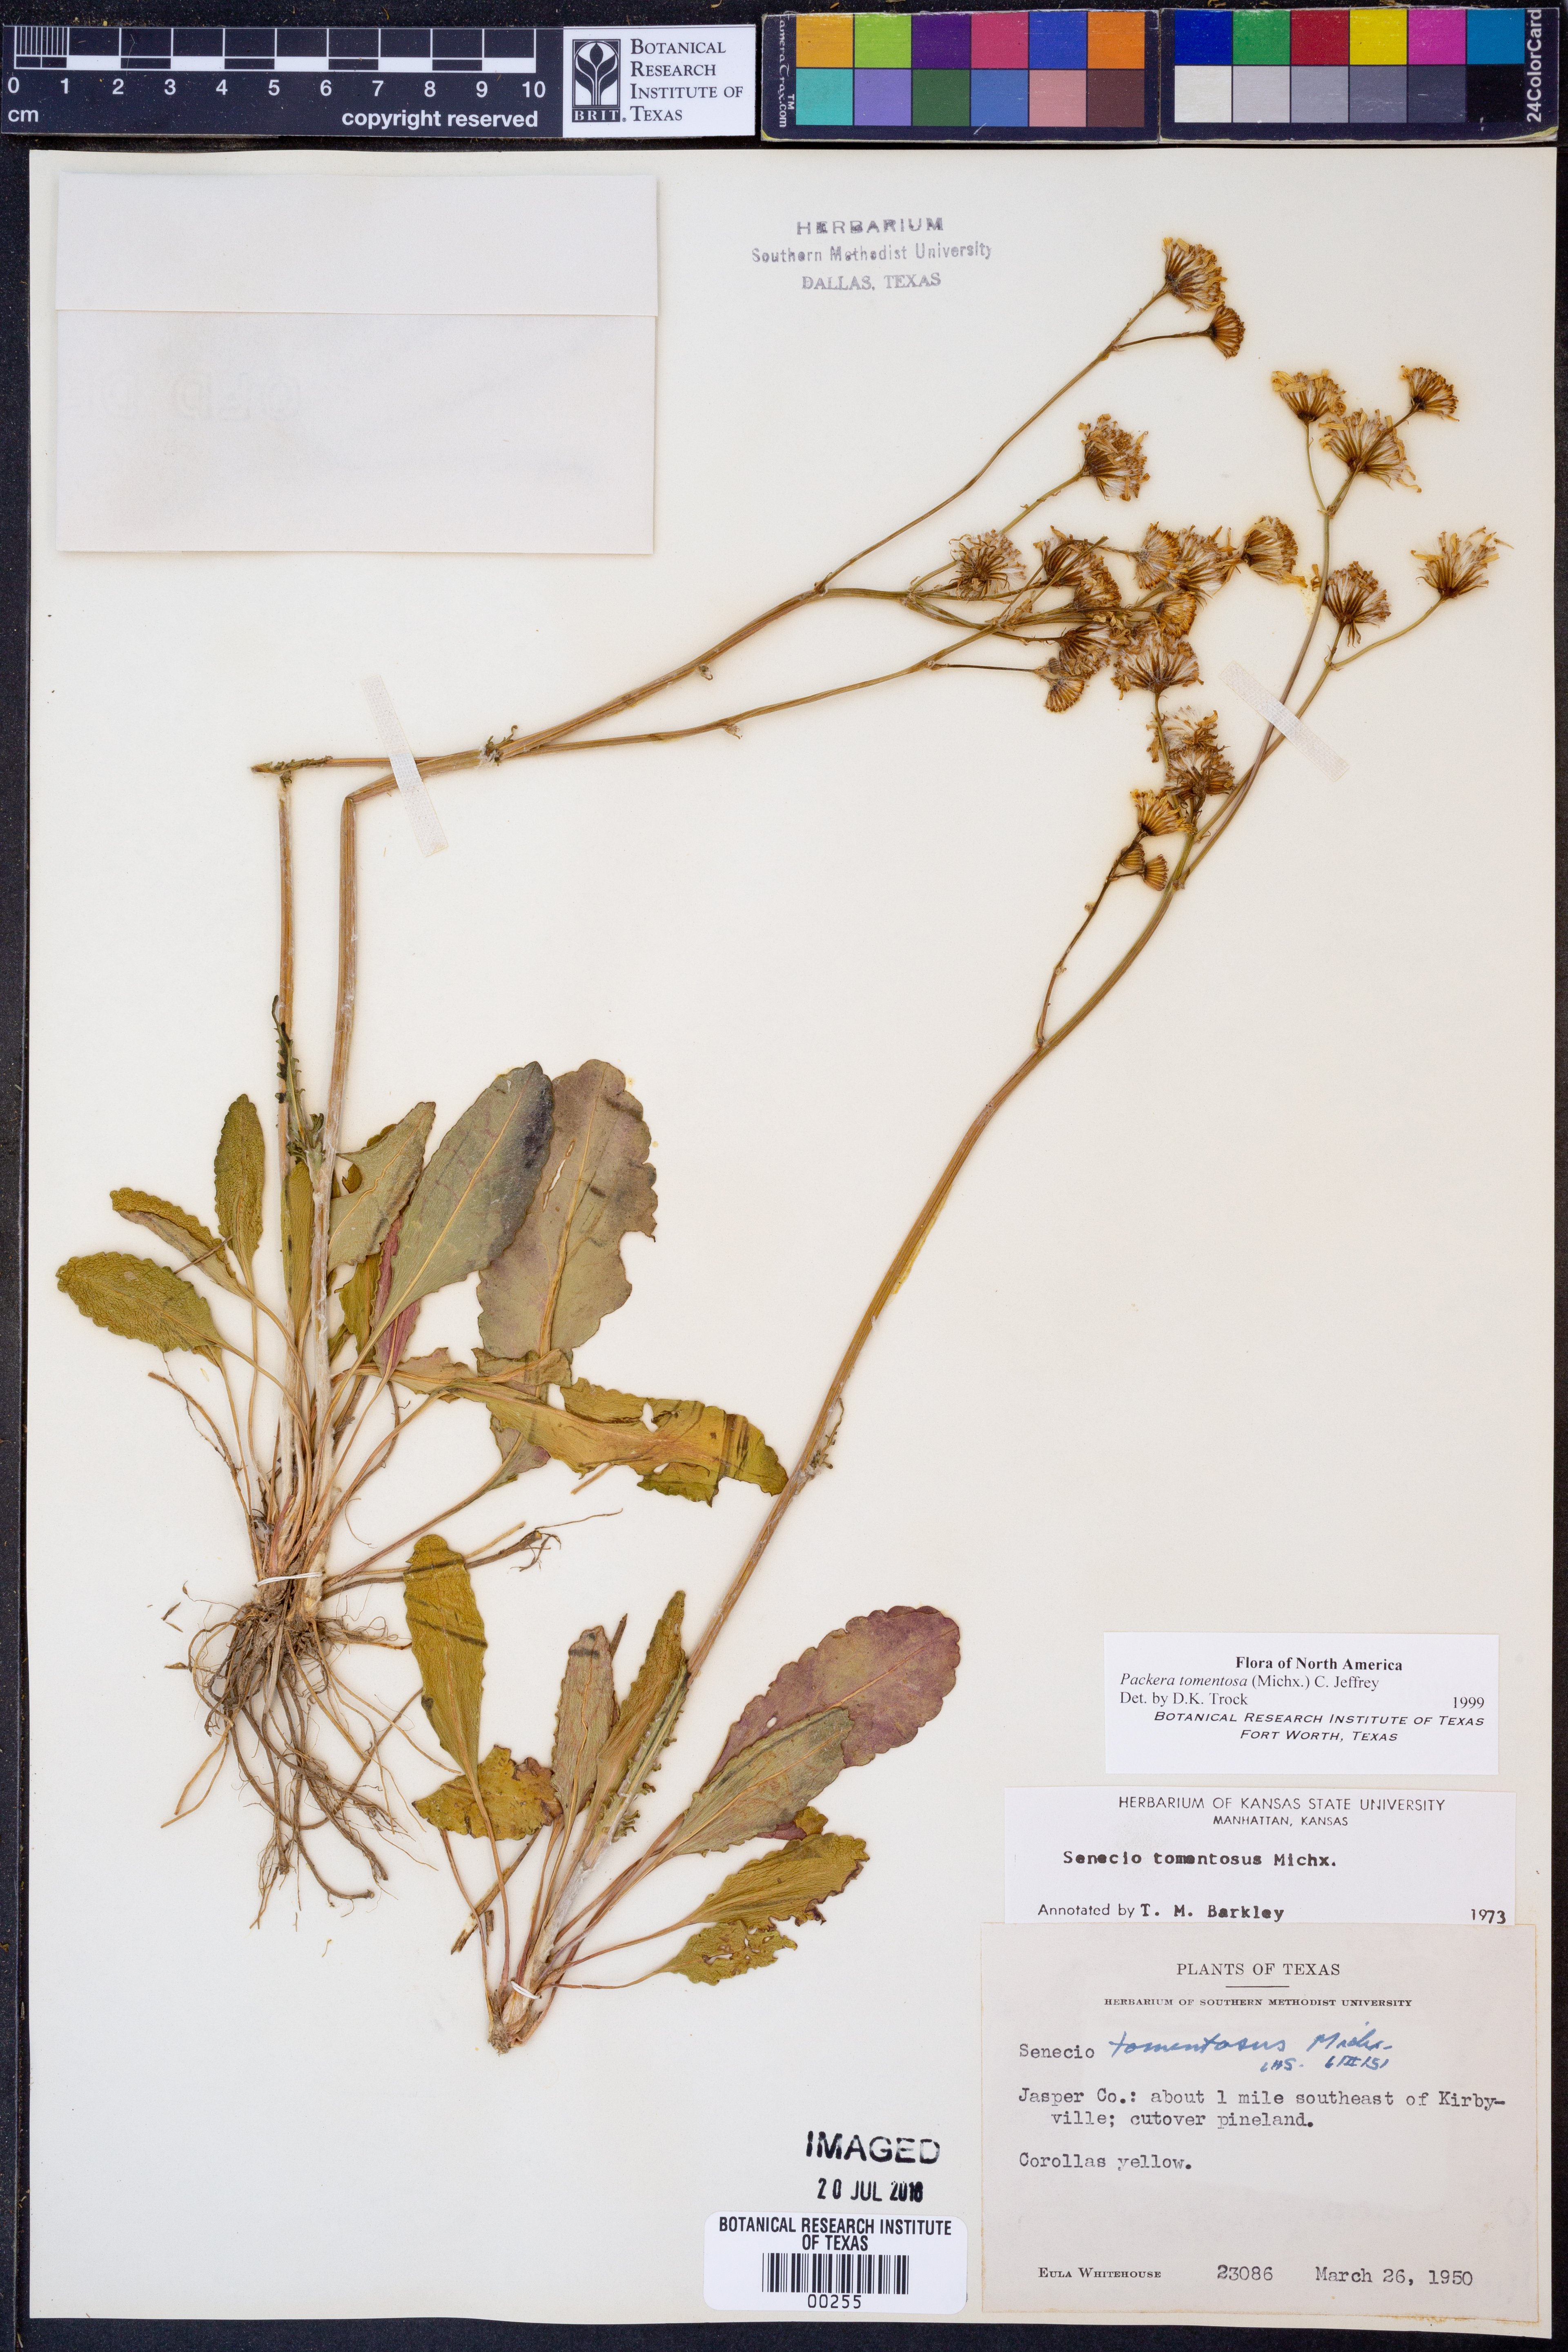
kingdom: Plantae
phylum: Tracheophyta
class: Magnoliopsida
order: Asterales
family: Asteraceae
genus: Packera
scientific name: Packera dubia
